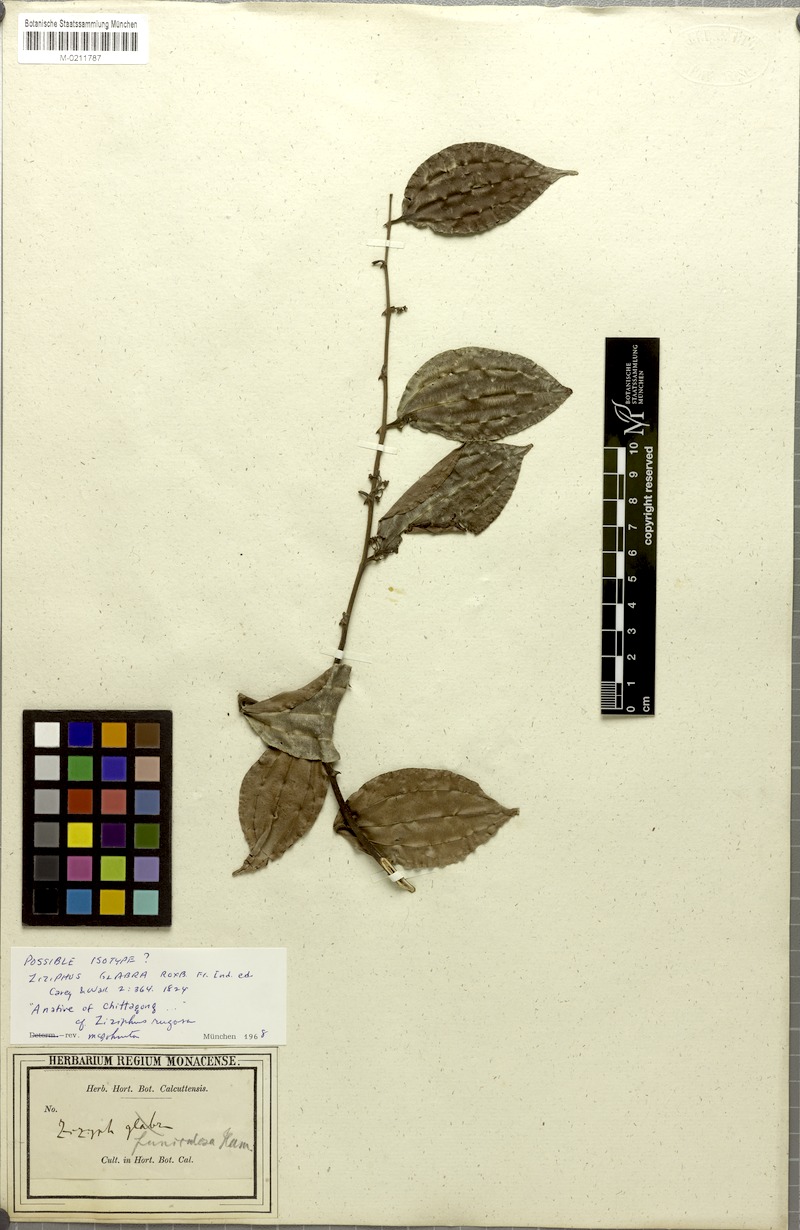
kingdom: Plantae
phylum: Tracheophyta
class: Magnoliopsida
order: Rosales
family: Rhamnaceae
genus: Ziziphus
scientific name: Ziziphus rugosa
